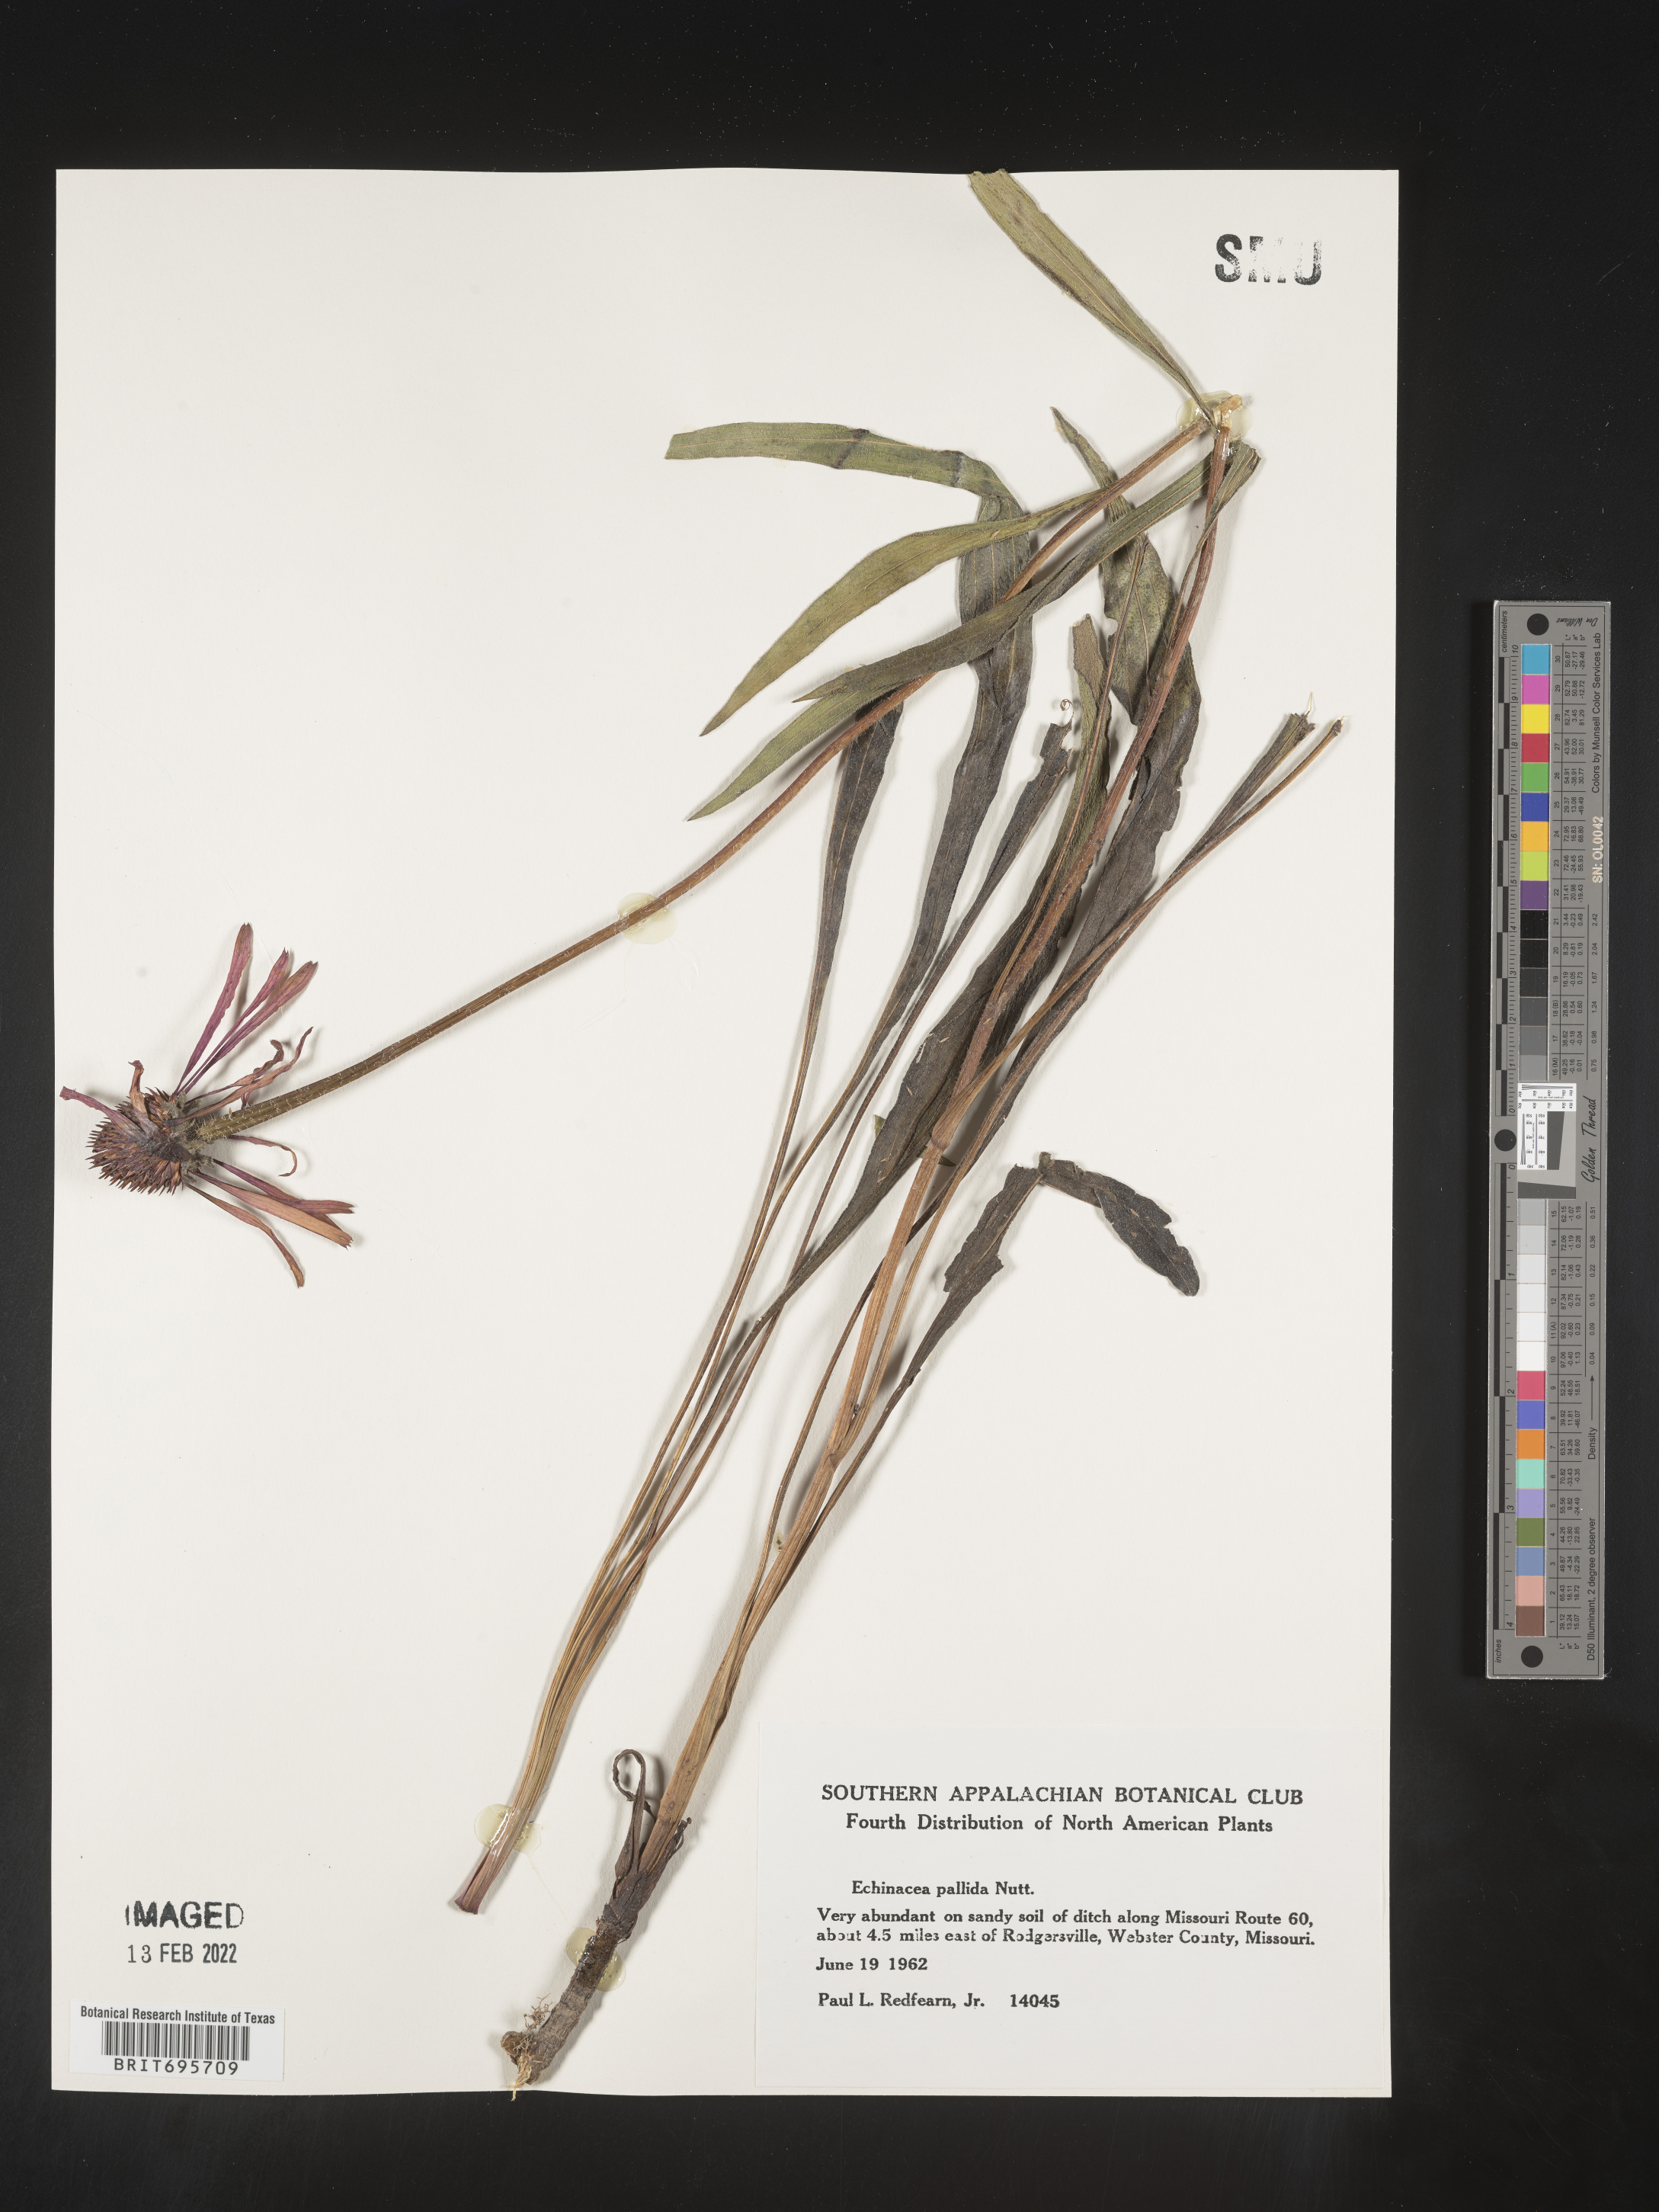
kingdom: Plantae
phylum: Tracheophyta
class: Magnoliopsida
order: Asterales
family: Asteraceae
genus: Echinacea
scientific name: Echinacea pallida
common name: Pale echinacea
